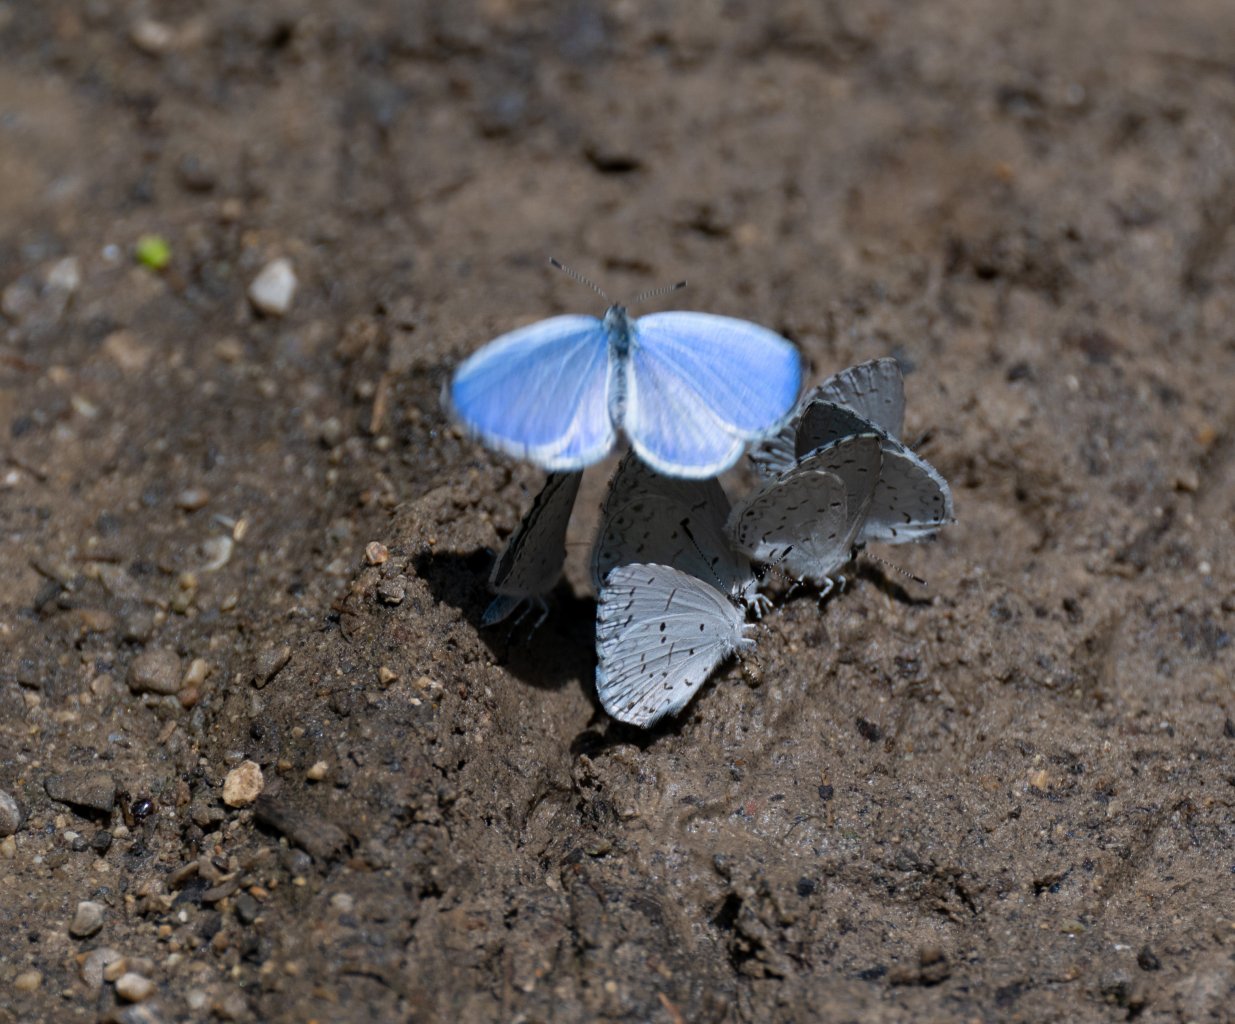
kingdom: Animalia
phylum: Arthropoda
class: Insecta
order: Lepidoptera
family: Lycaenidae
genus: Cyaniris
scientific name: Cyaniris neglecta
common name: Summer Azure
